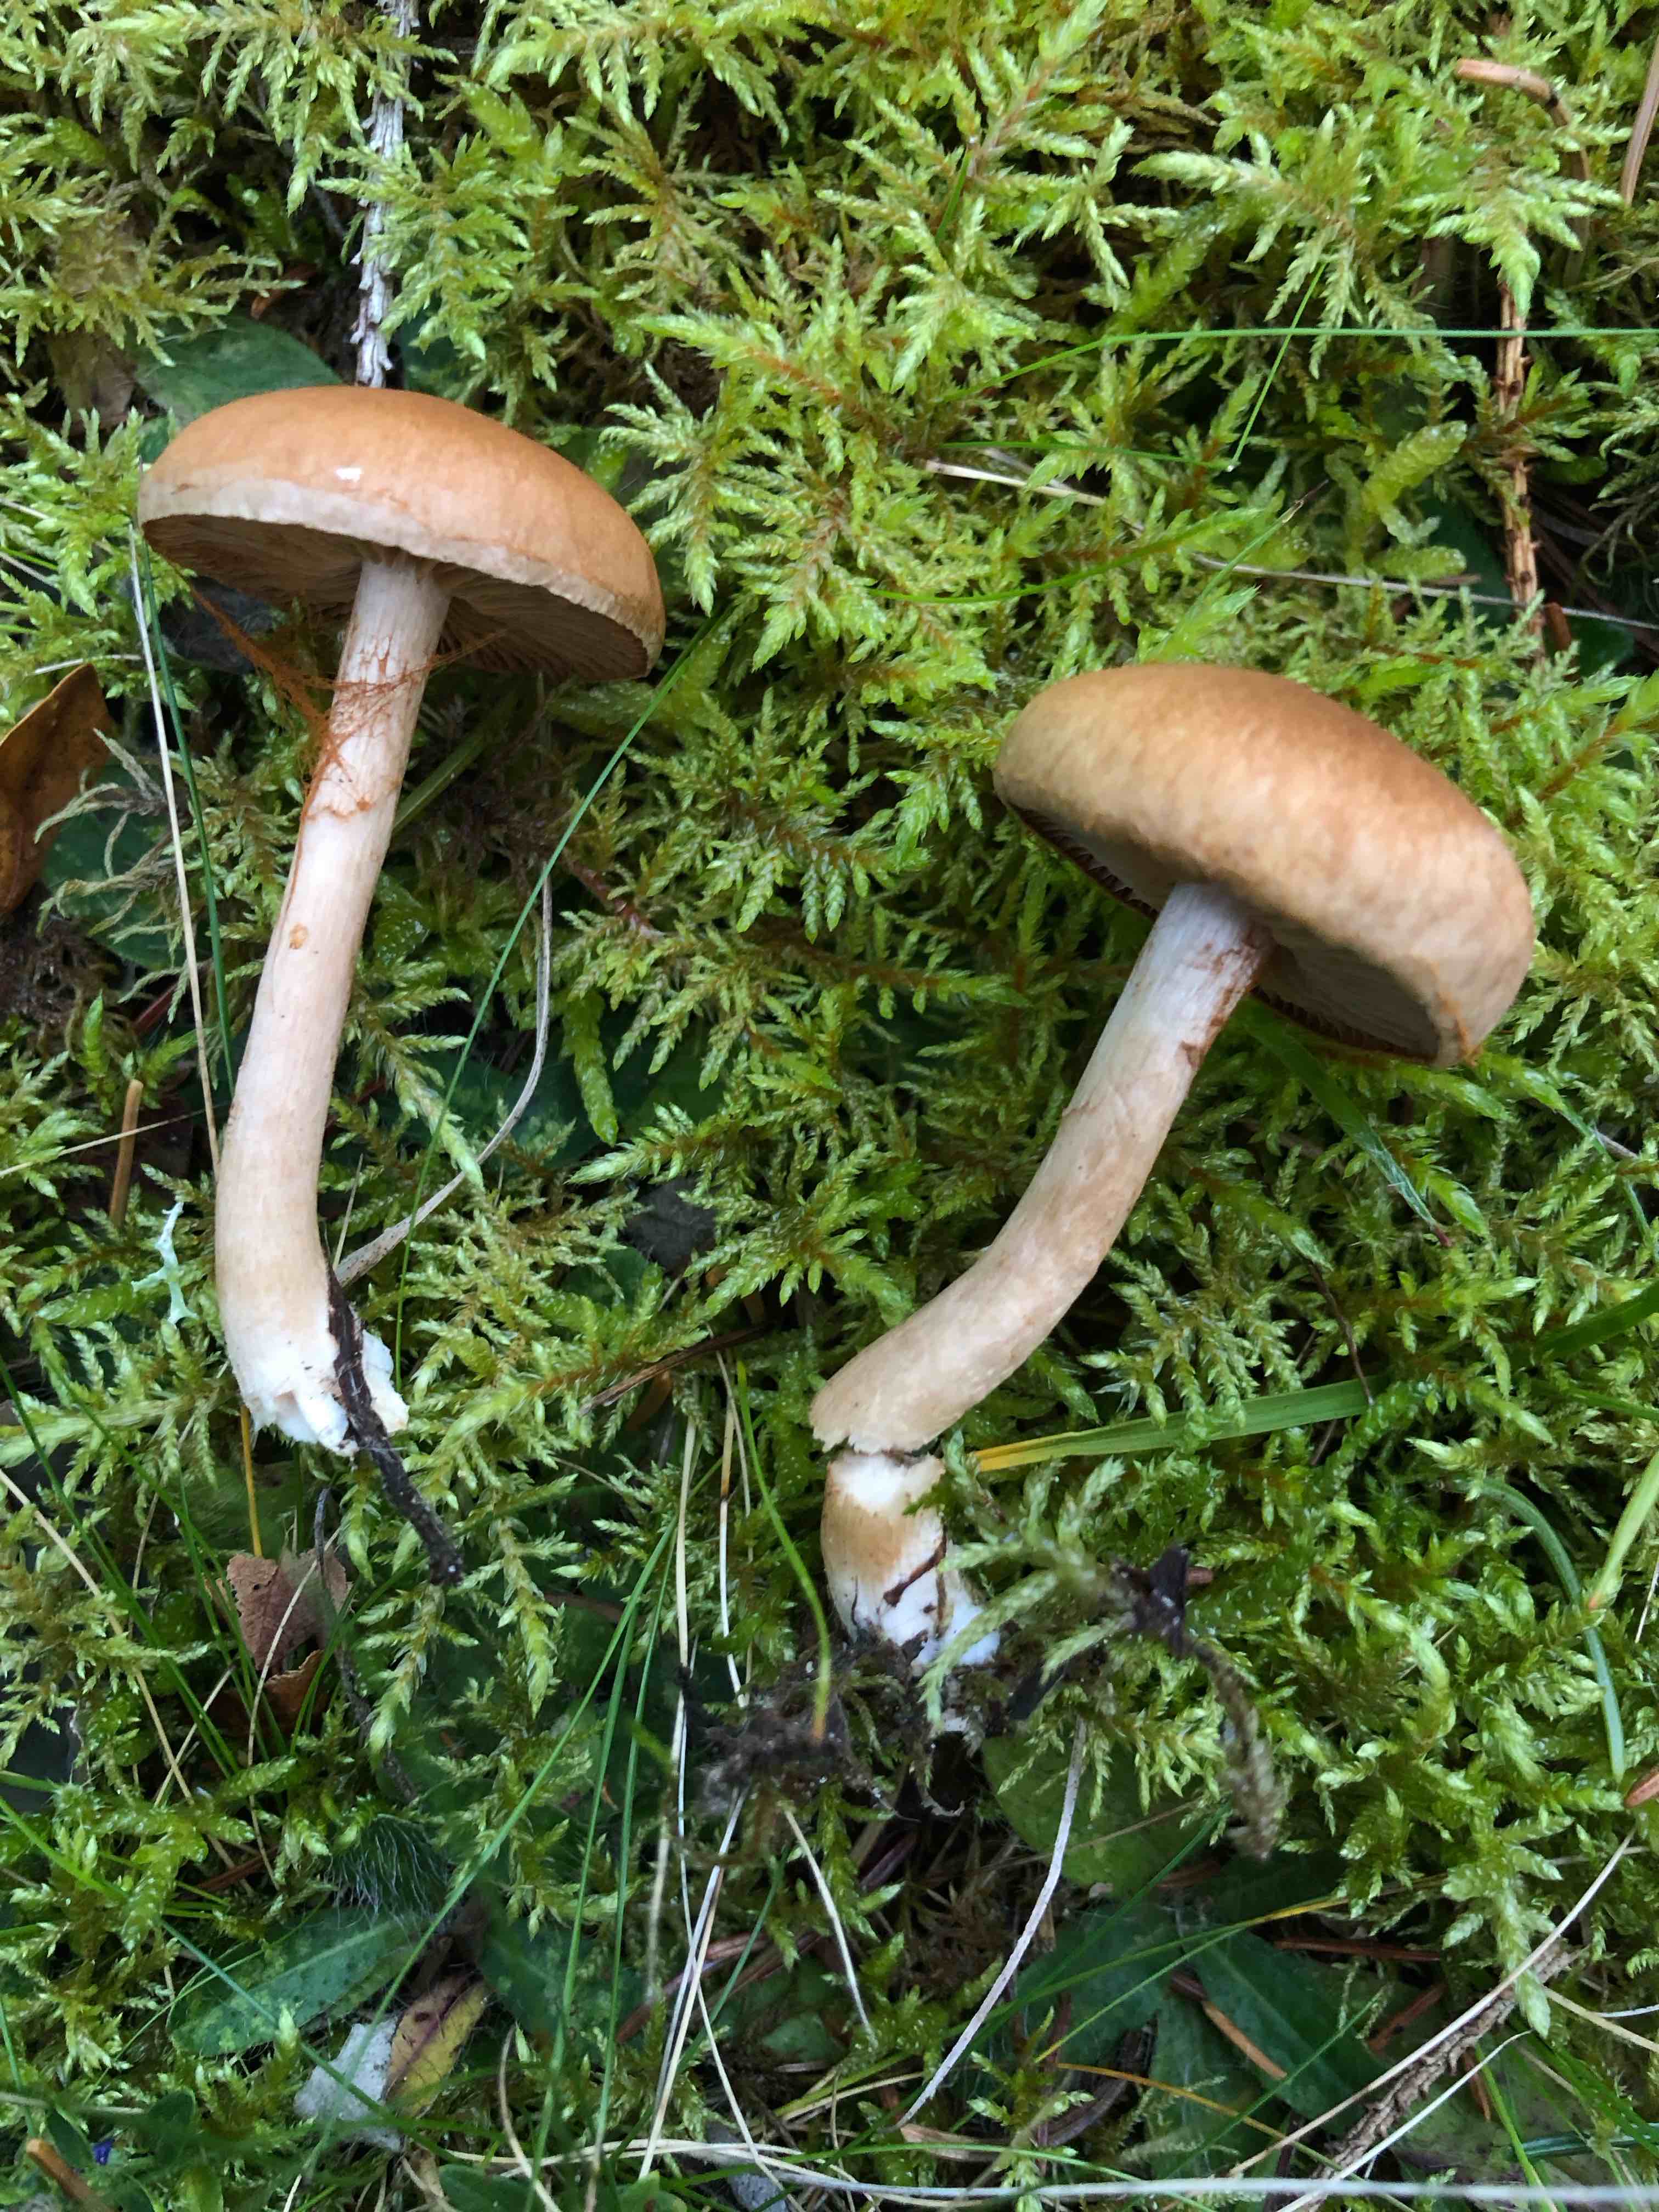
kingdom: Fungi
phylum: Basidiomycota
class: Agaricomycetes
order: Agaricales
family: Cortinariaceae
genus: Cortinarius
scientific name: Cortinarius
